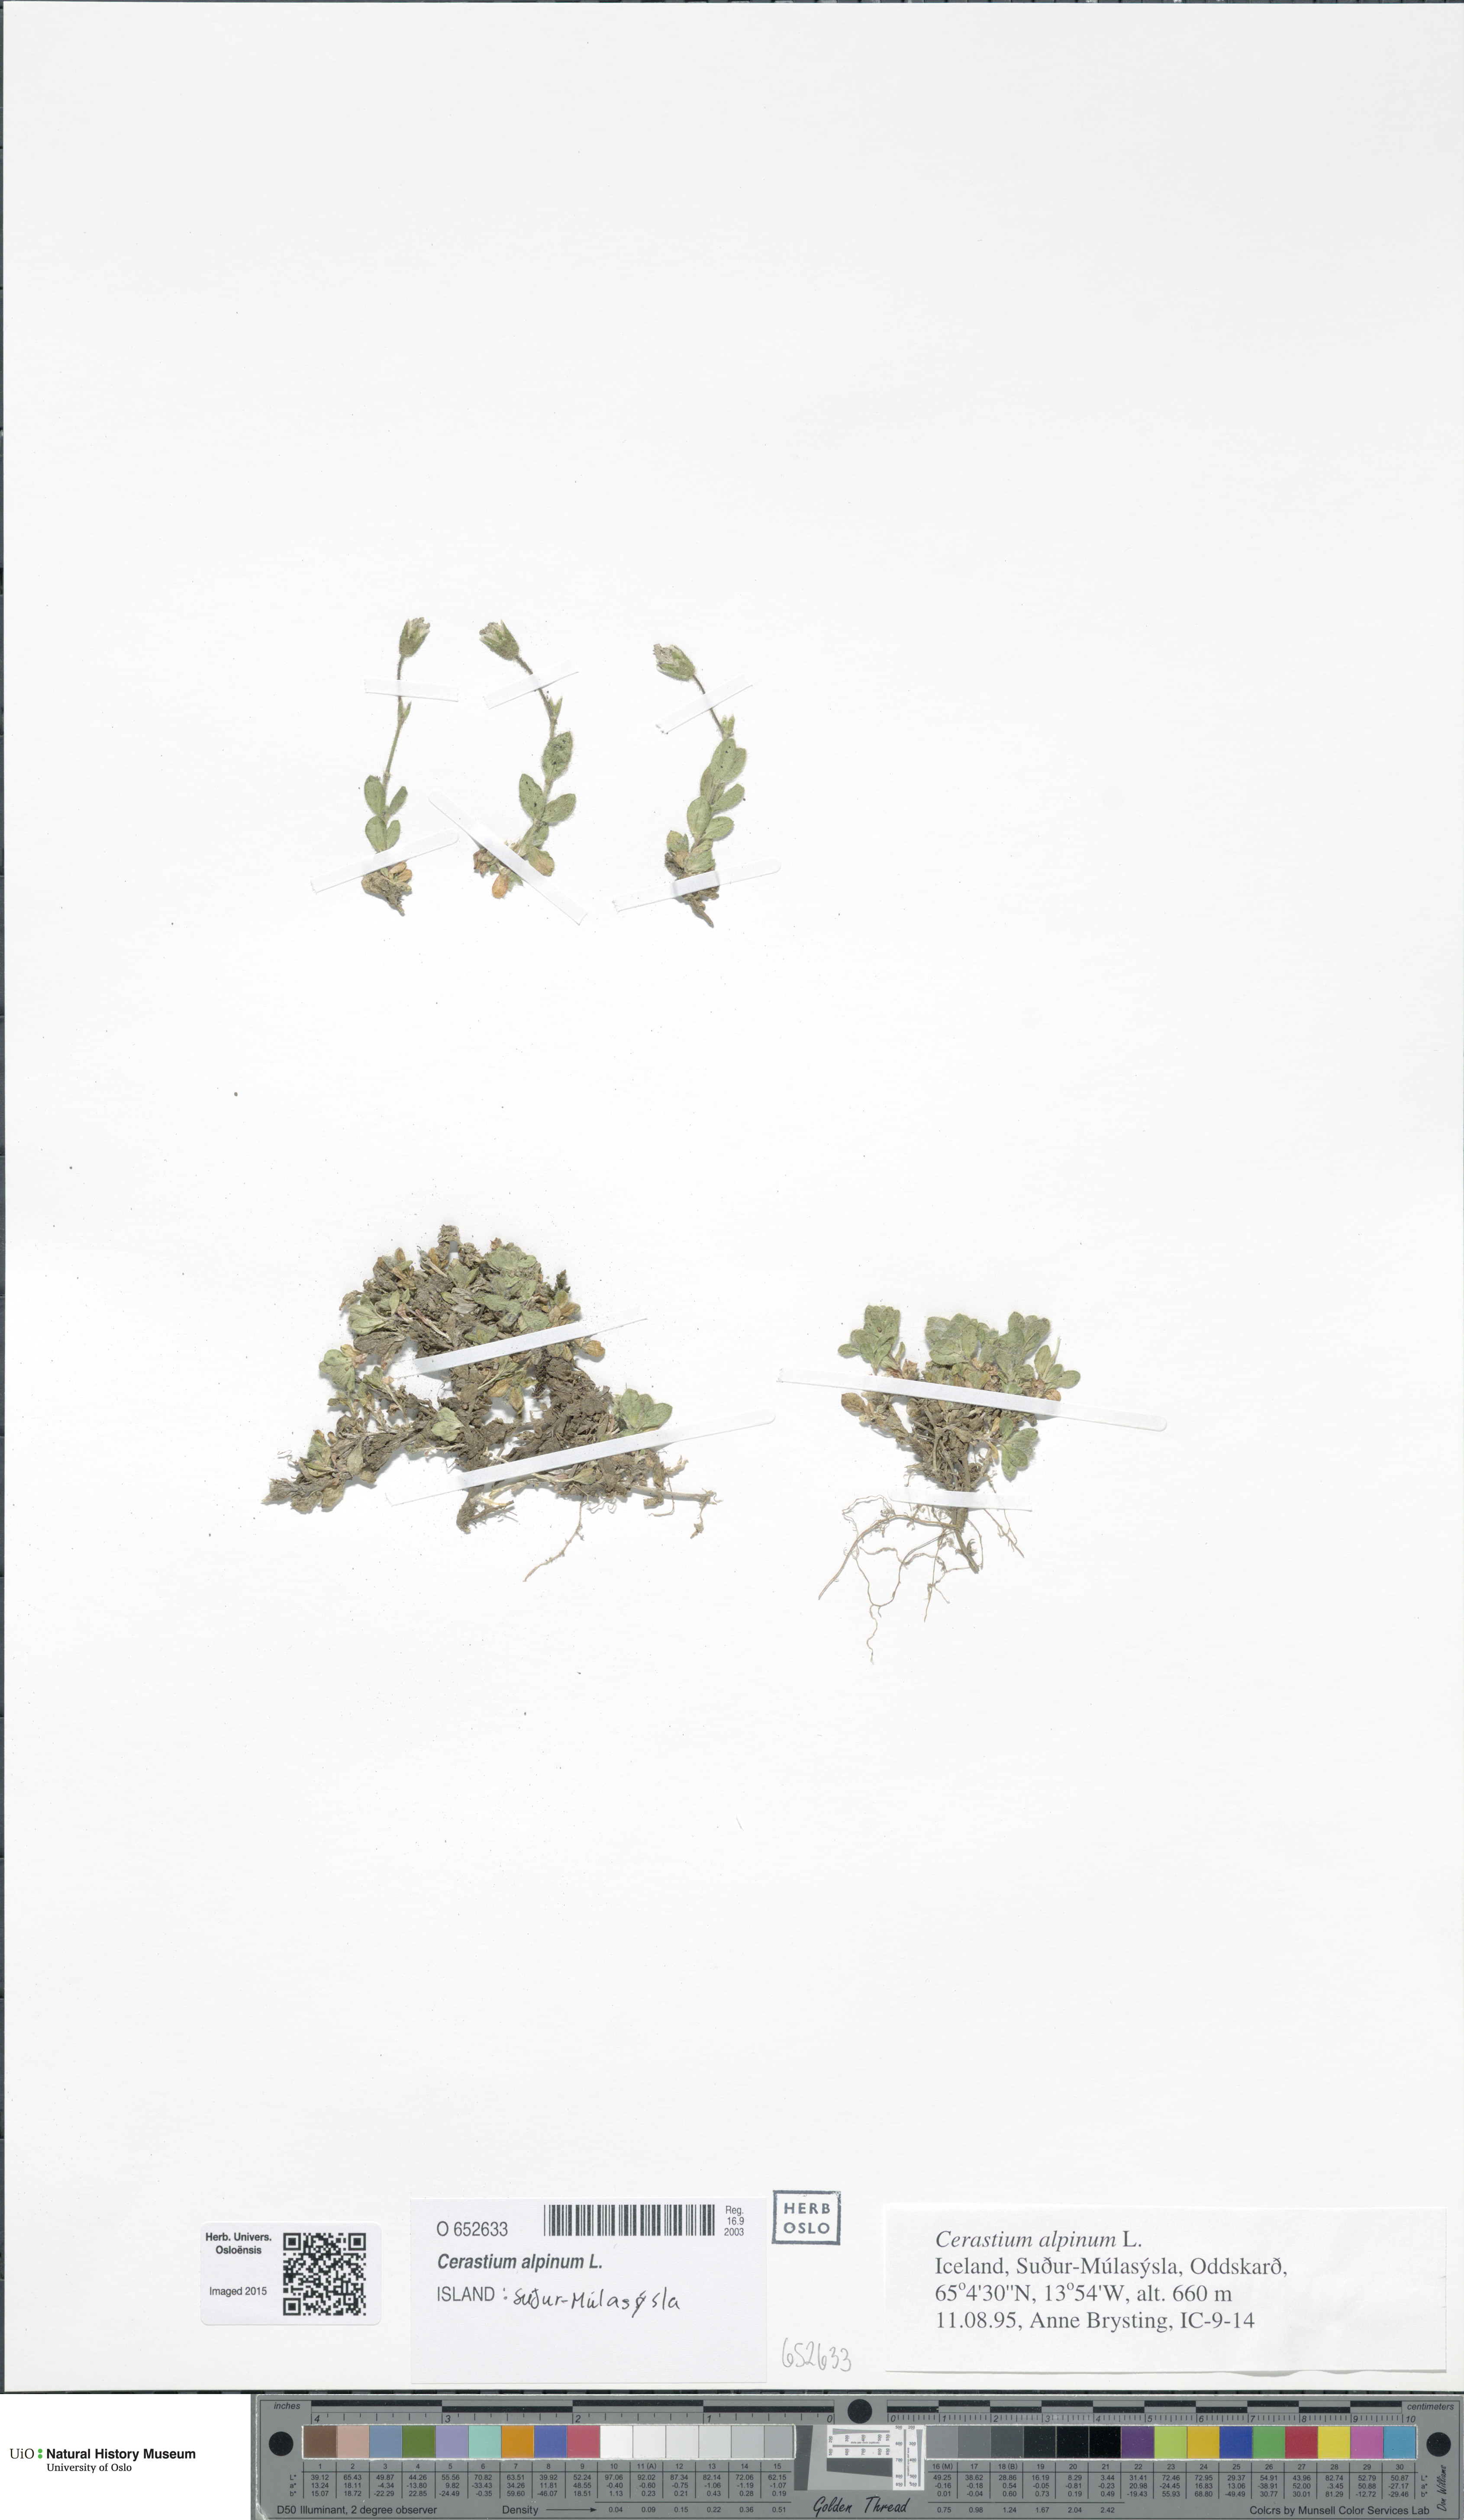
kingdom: Plantae
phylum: Tracheophyta
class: Magnoliopsida
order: Caryophyllales
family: Caryophyllaceae
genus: Cerastium
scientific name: Cerastium alpinum
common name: Alpine mouse-ear
